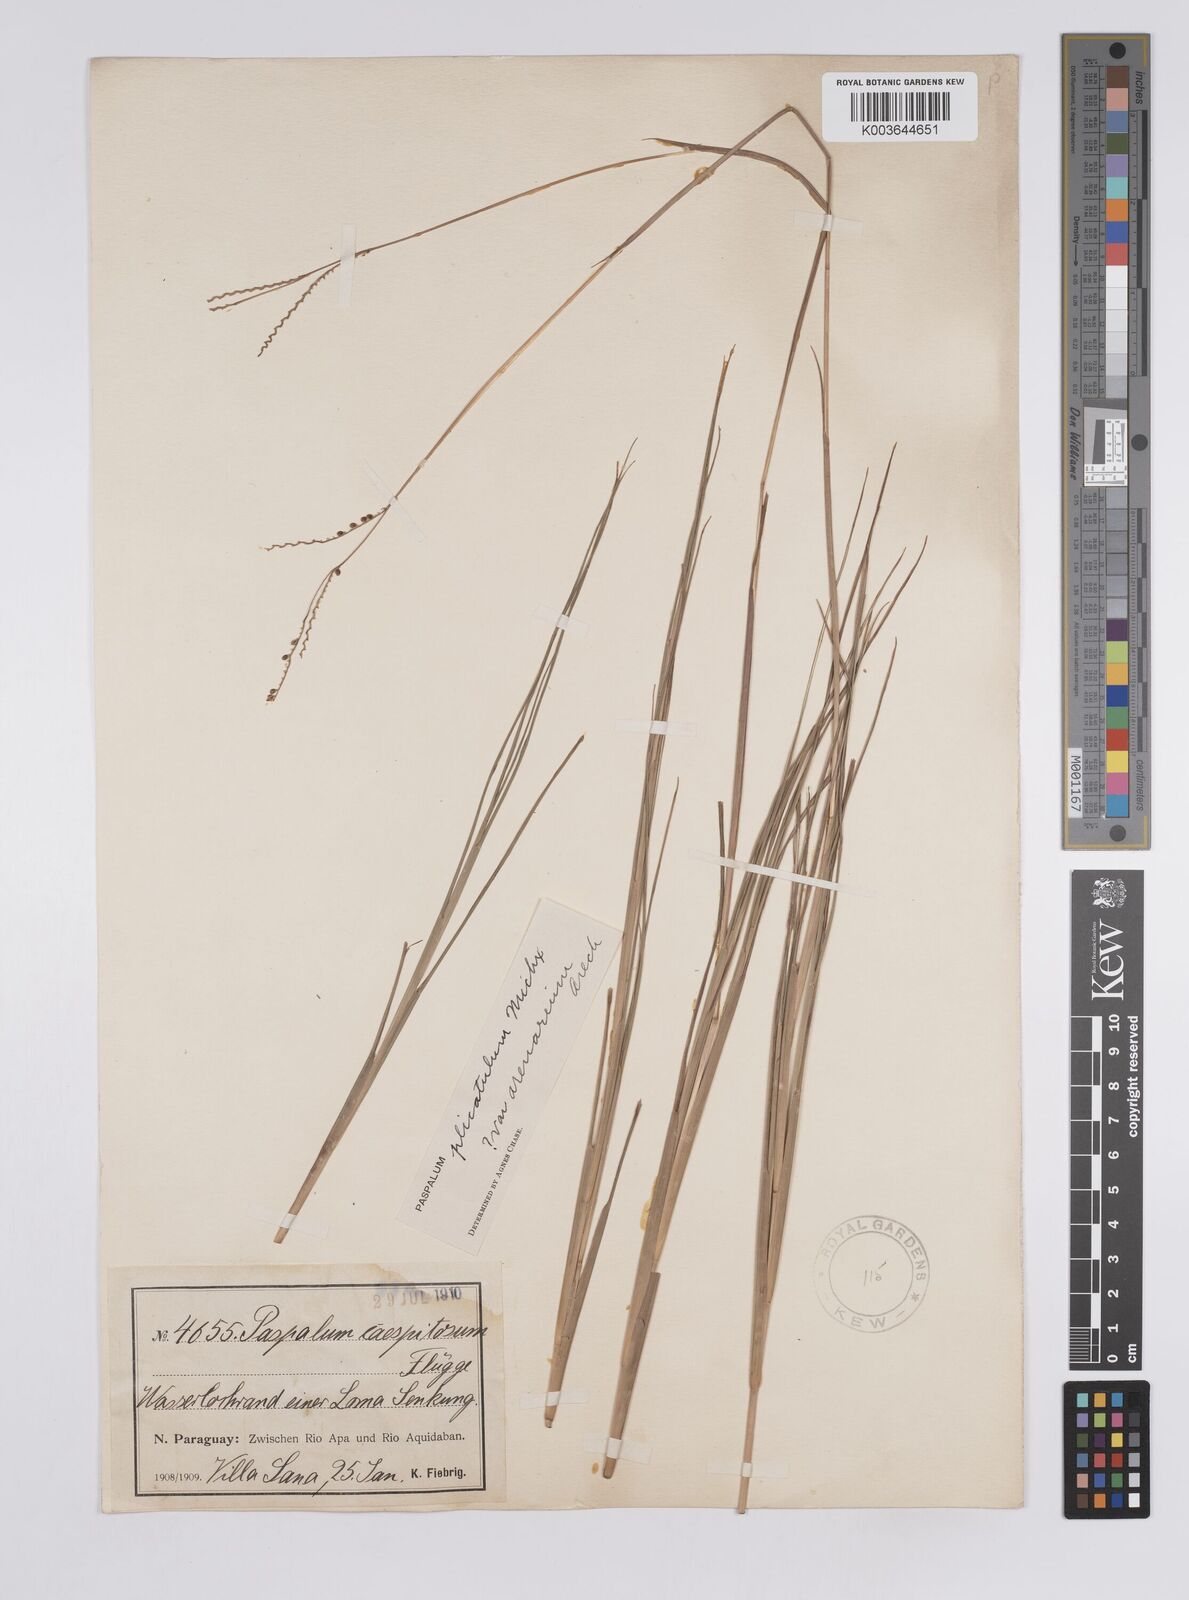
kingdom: Plantae
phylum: Tracheophyta
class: Liliopsida
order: Poales
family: Poaceae
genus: Paspalum
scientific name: Paspalum plicatulum
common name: Top paspalum
